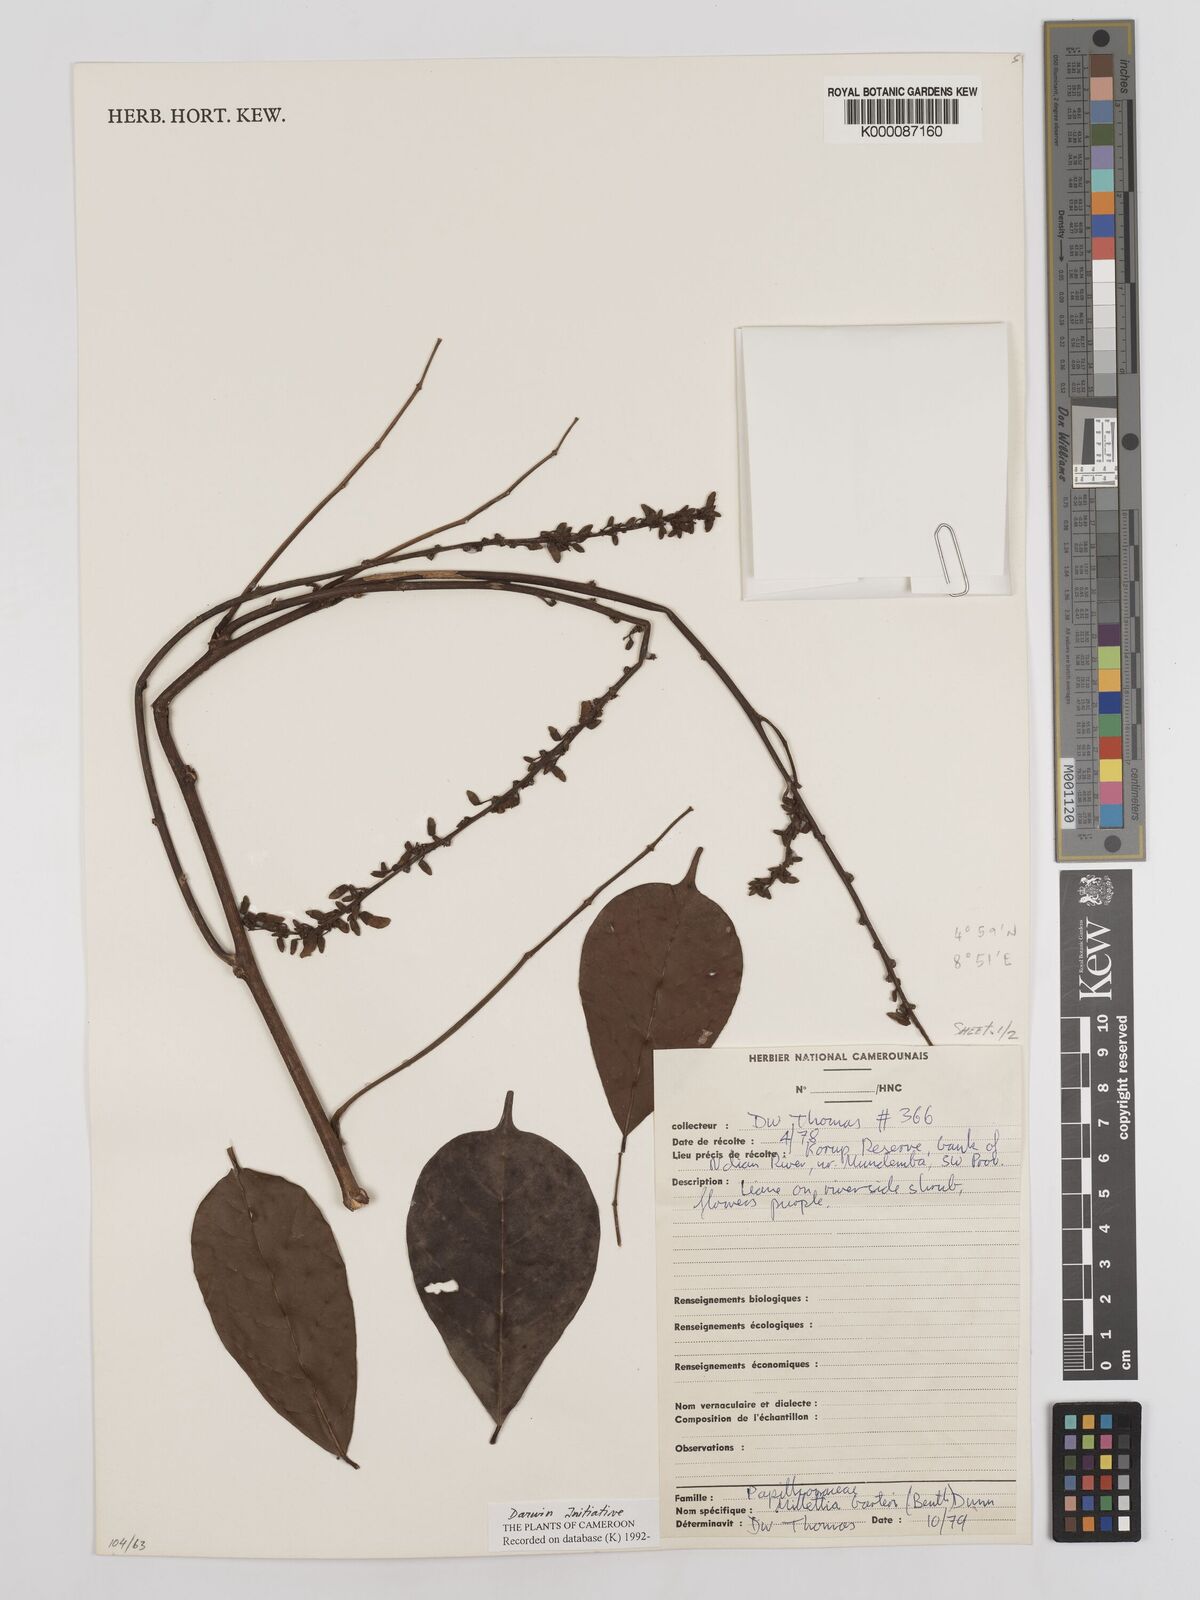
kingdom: Plantae
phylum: Tracheophyta
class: Magnoliopsida
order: Fabales
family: Fabaceae
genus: Millettia
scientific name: Millettia barteri
